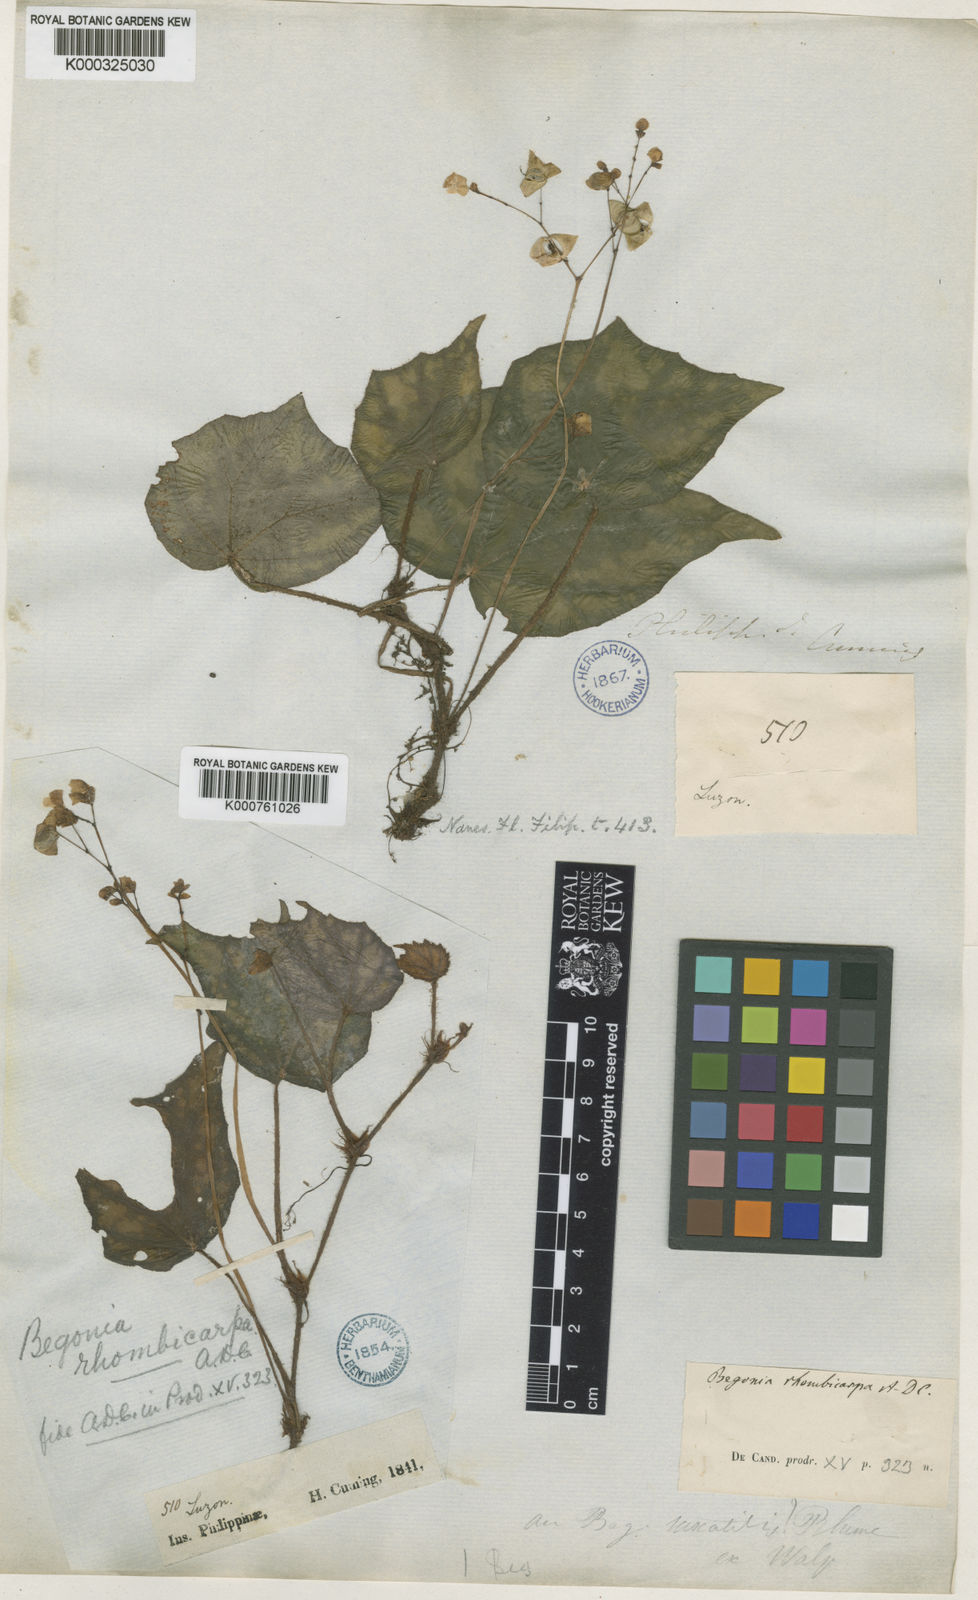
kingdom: Plantae
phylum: Tracheophyta
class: Magnoliopsida
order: Cucurbitales
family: Begoniaceae
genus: Begonia
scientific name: Begonia nigritarum
